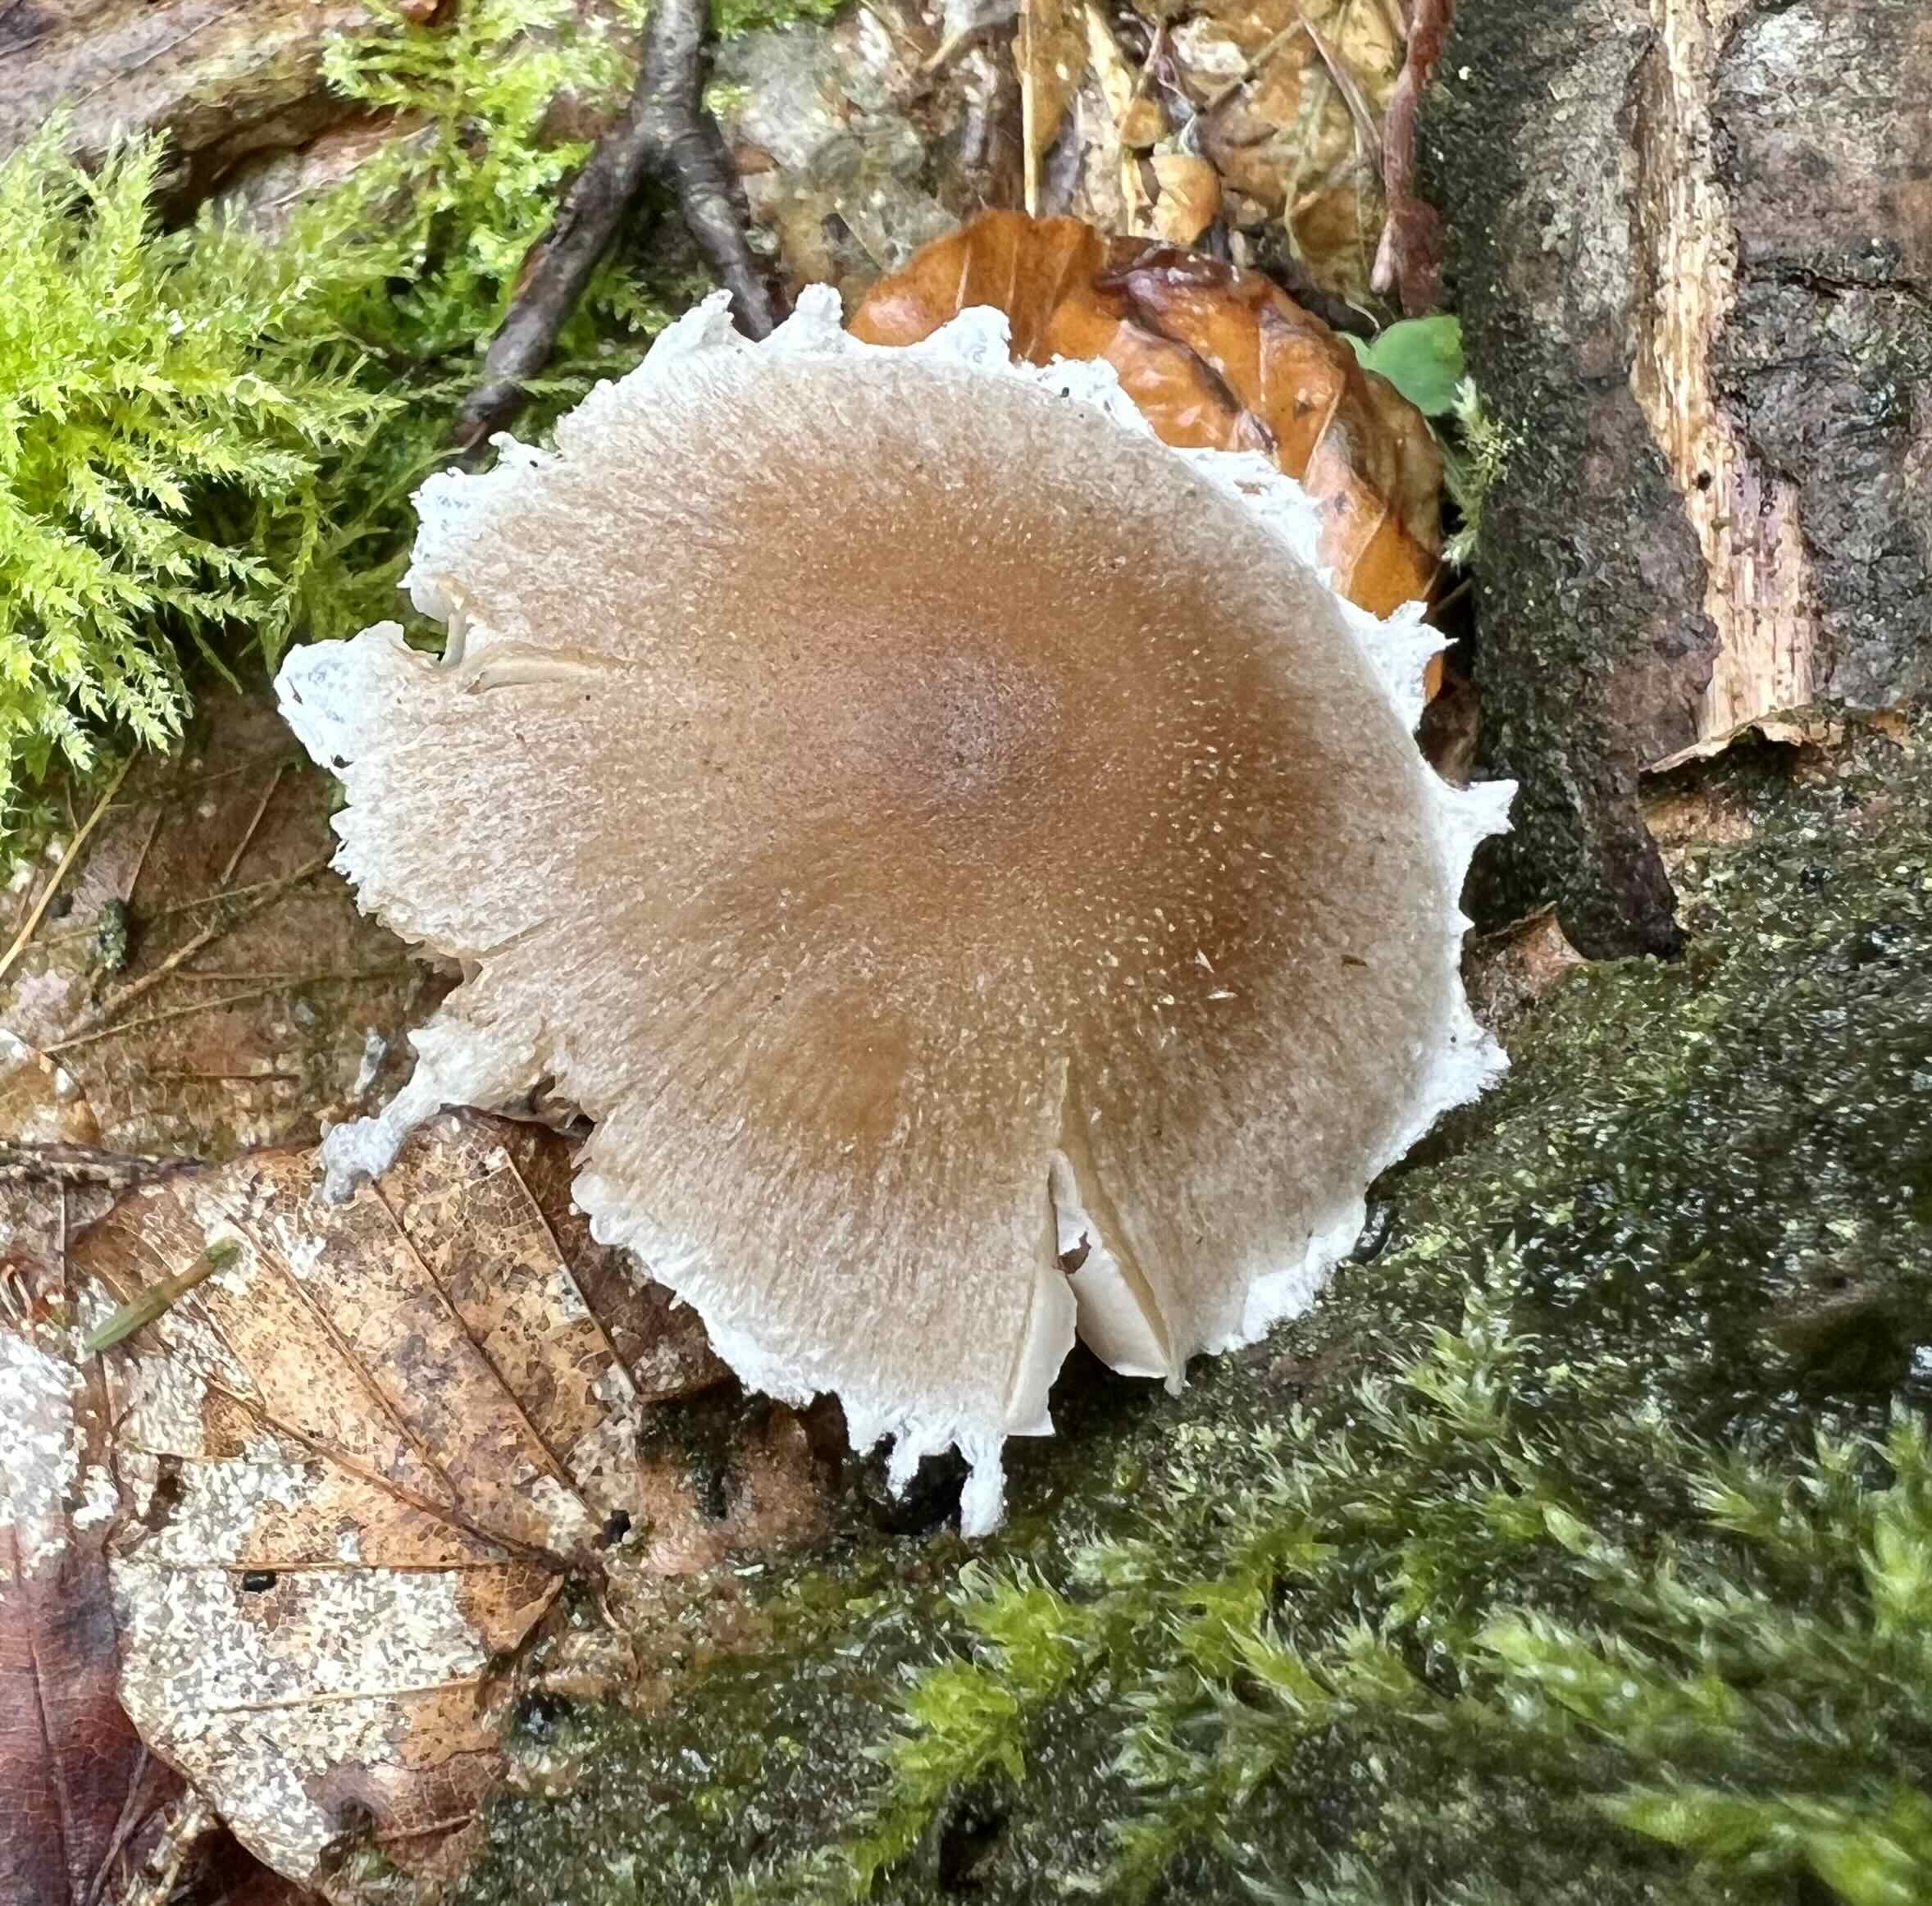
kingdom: Fungi
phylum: Basidiomycota
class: Agaricomycetes
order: Agaricales
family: Psathyrellaceae
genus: Psathyrella
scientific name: Psathyrella
